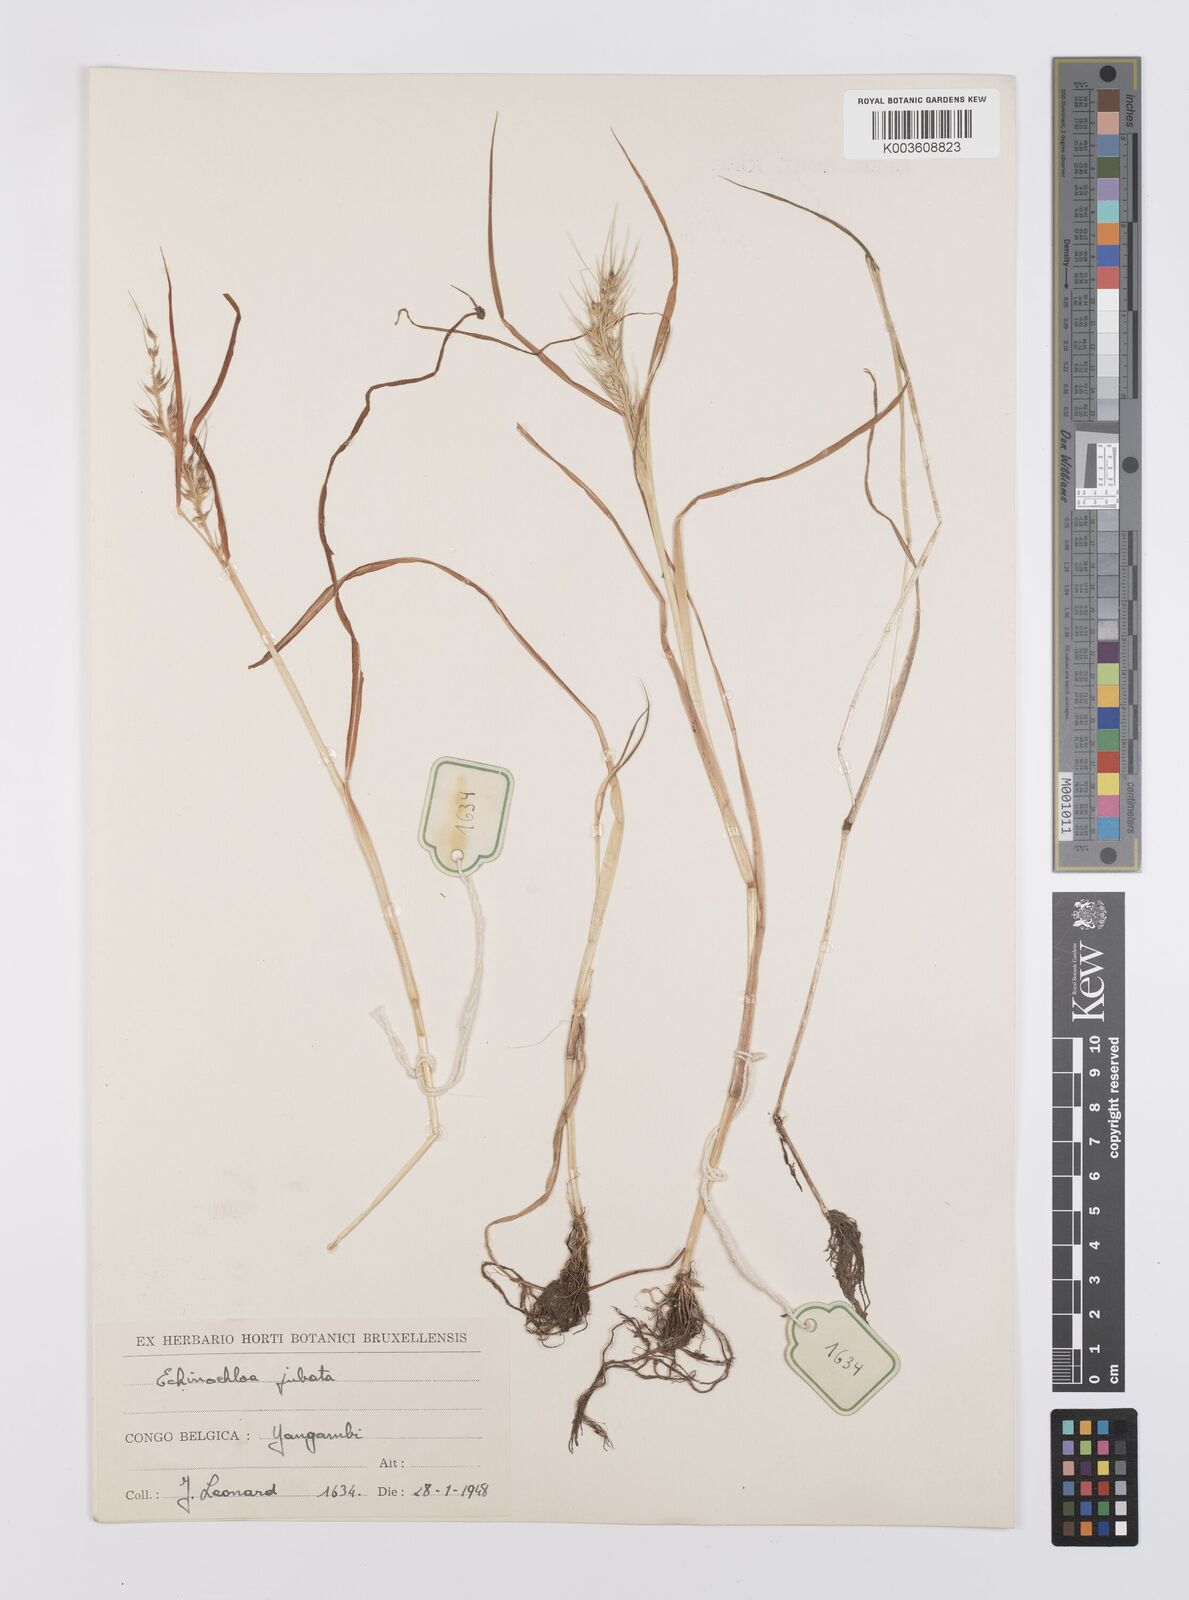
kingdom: Plantae
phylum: Tracheophyta
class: Liliopsida
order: Poales
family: Poaceae
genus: Echinochloa
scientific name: Echinochloa jubata
